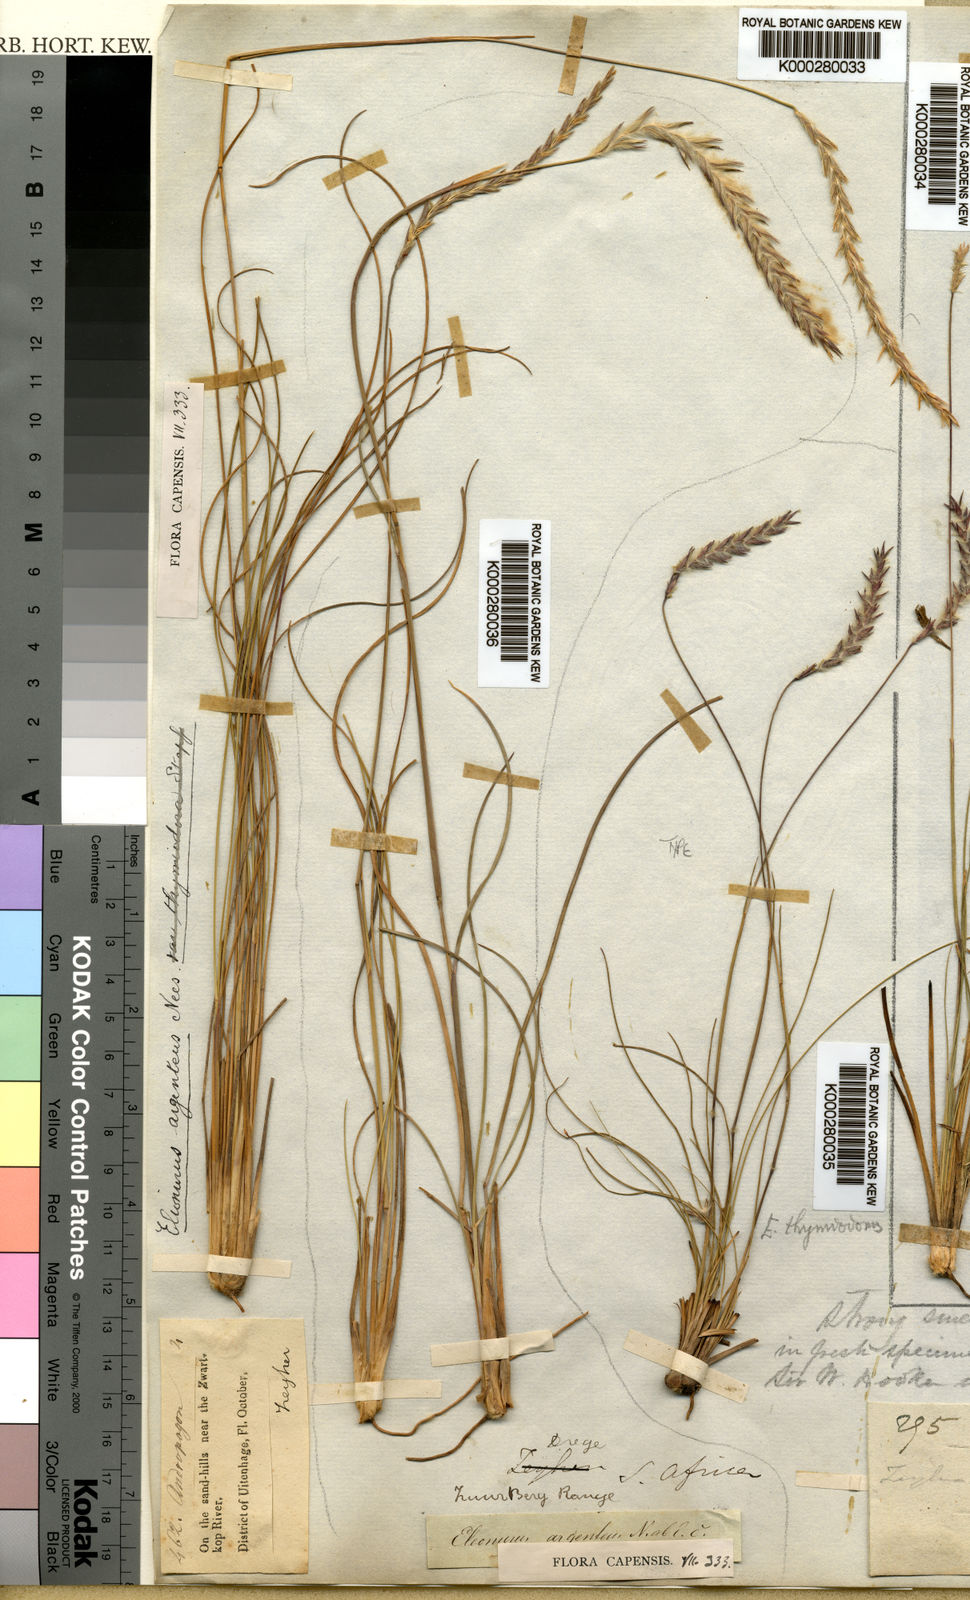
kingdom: Plantae
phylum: Tracheophyta
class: Liliopsida
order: Poales
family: Poaceae
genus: Elionurus
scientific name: Elionurus muticus
